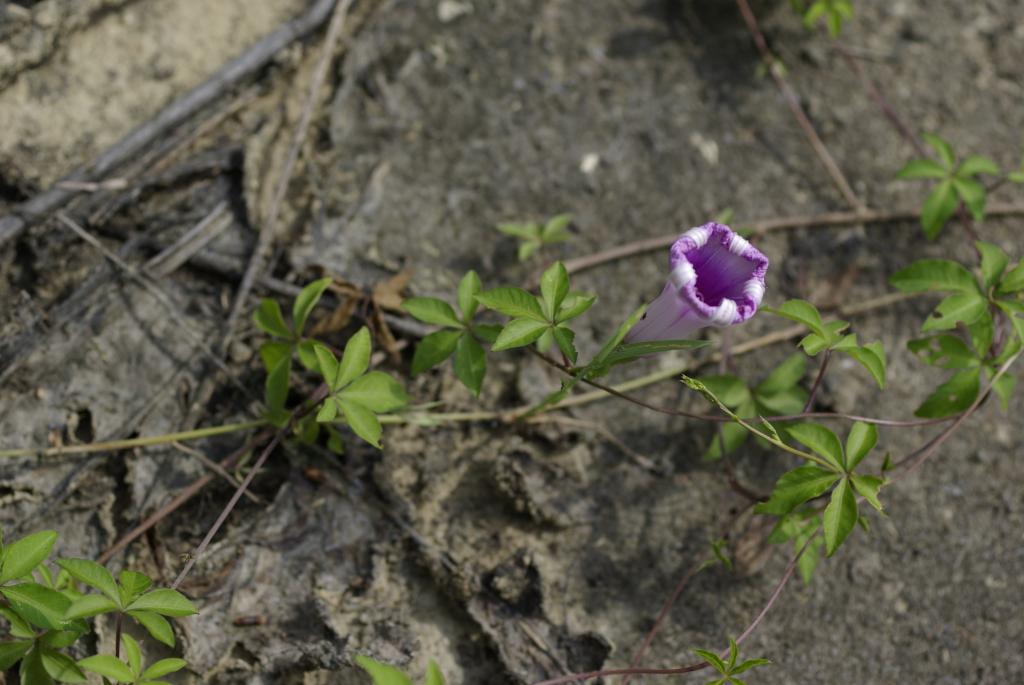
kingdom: Plantae
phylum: Tracheophyta
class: Magnoliopsida
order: Solanales
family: Convolvulaceae
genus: Ipomoea
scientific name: Ipomoea cairica
